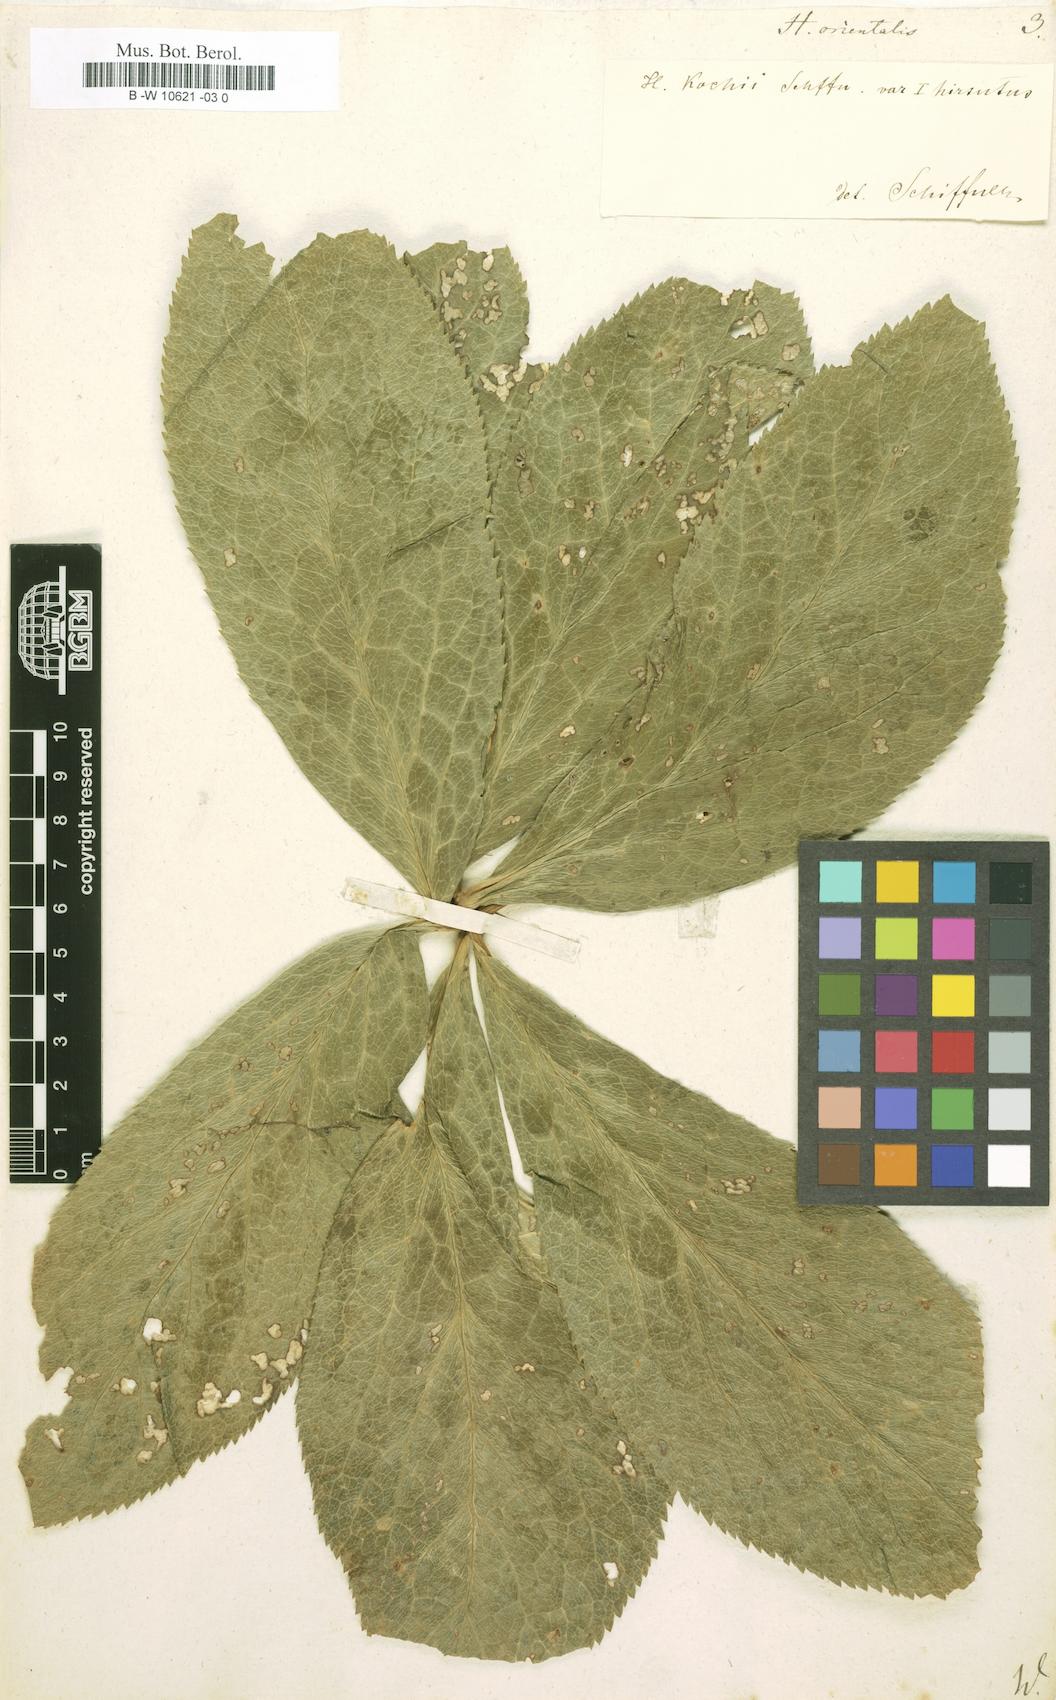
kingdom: Plantae
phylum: Tracheophyta
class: Magnoliopsida
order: Ranunculales
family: Ranunculaceae
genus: Helleborus
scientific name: Helleborus orientalis
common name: Lenten-rose
